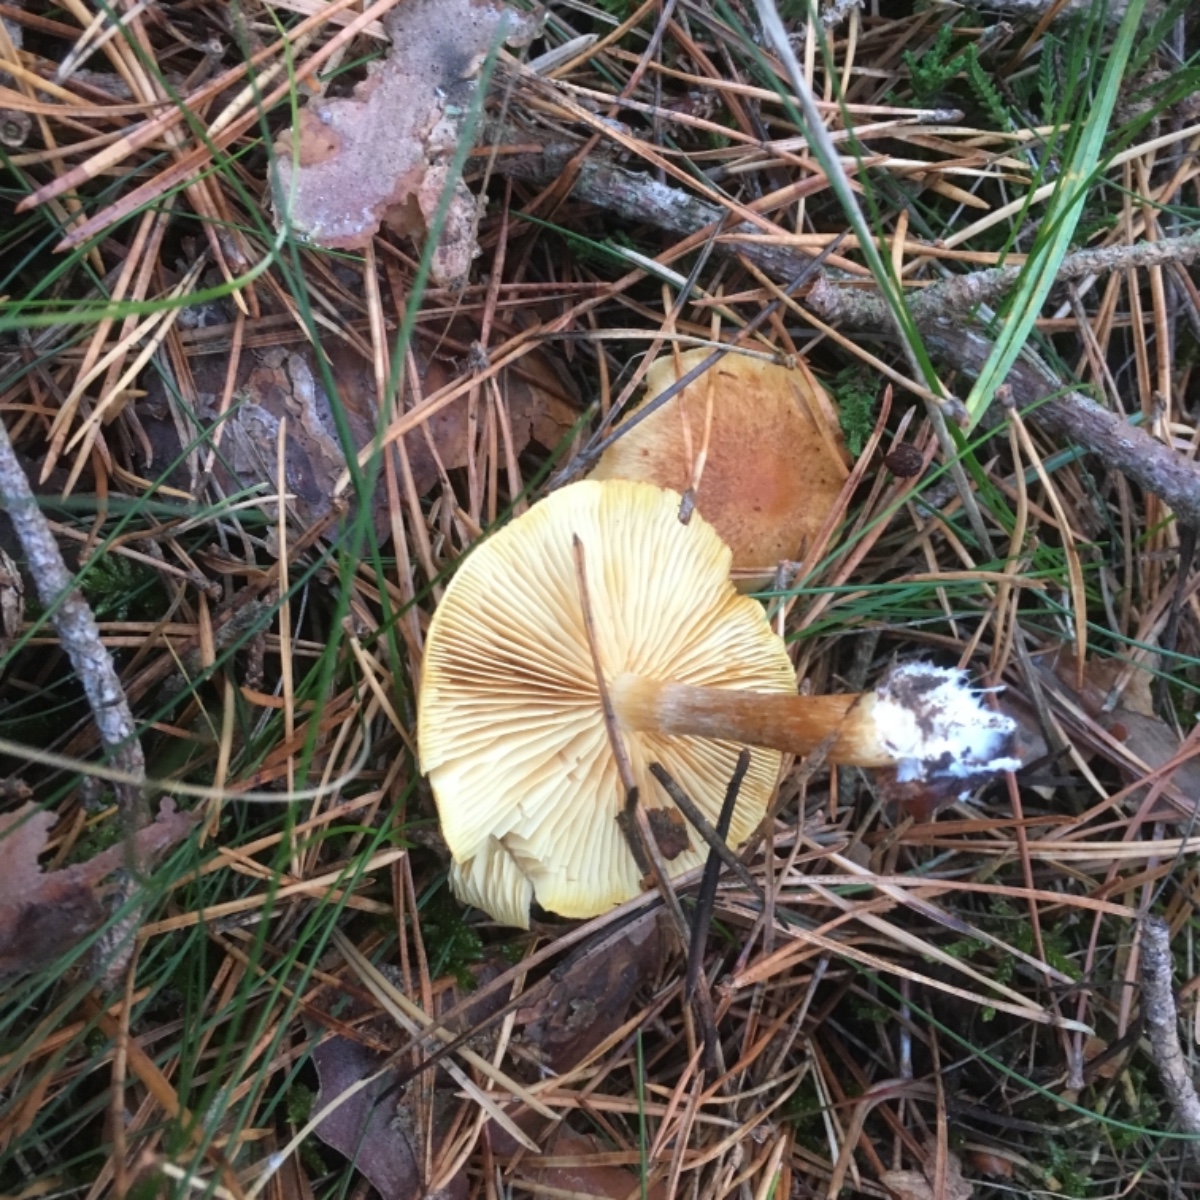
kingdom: Fungi
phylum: Basidiomycota
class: Agaricomycetes
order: Agaricales
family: Hymenogastraceae
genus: Gymnopilus
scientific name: Gymnopilus penetrans
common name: plettet flammehat
